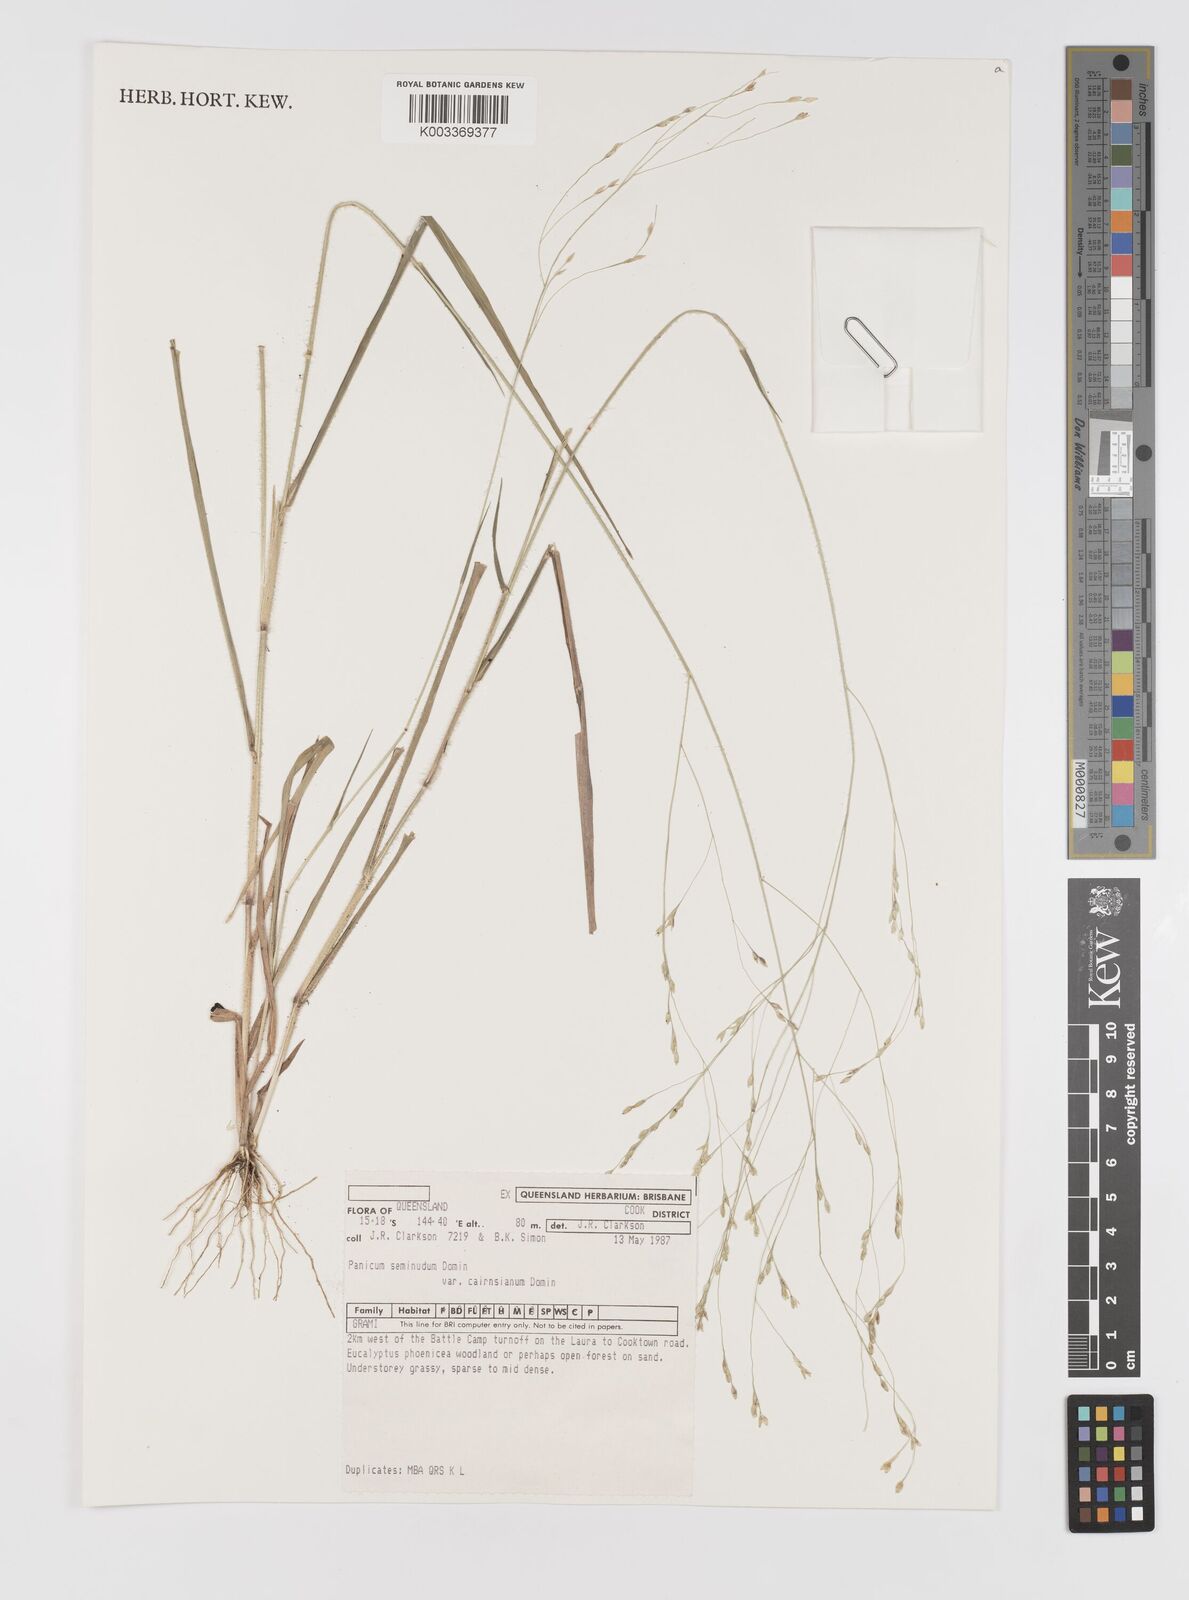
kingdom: Plantae
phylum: Tracheophyta
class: Liliopsida
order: Poales
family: Poaceae
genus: Panicum
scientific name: Panicum seminudum
